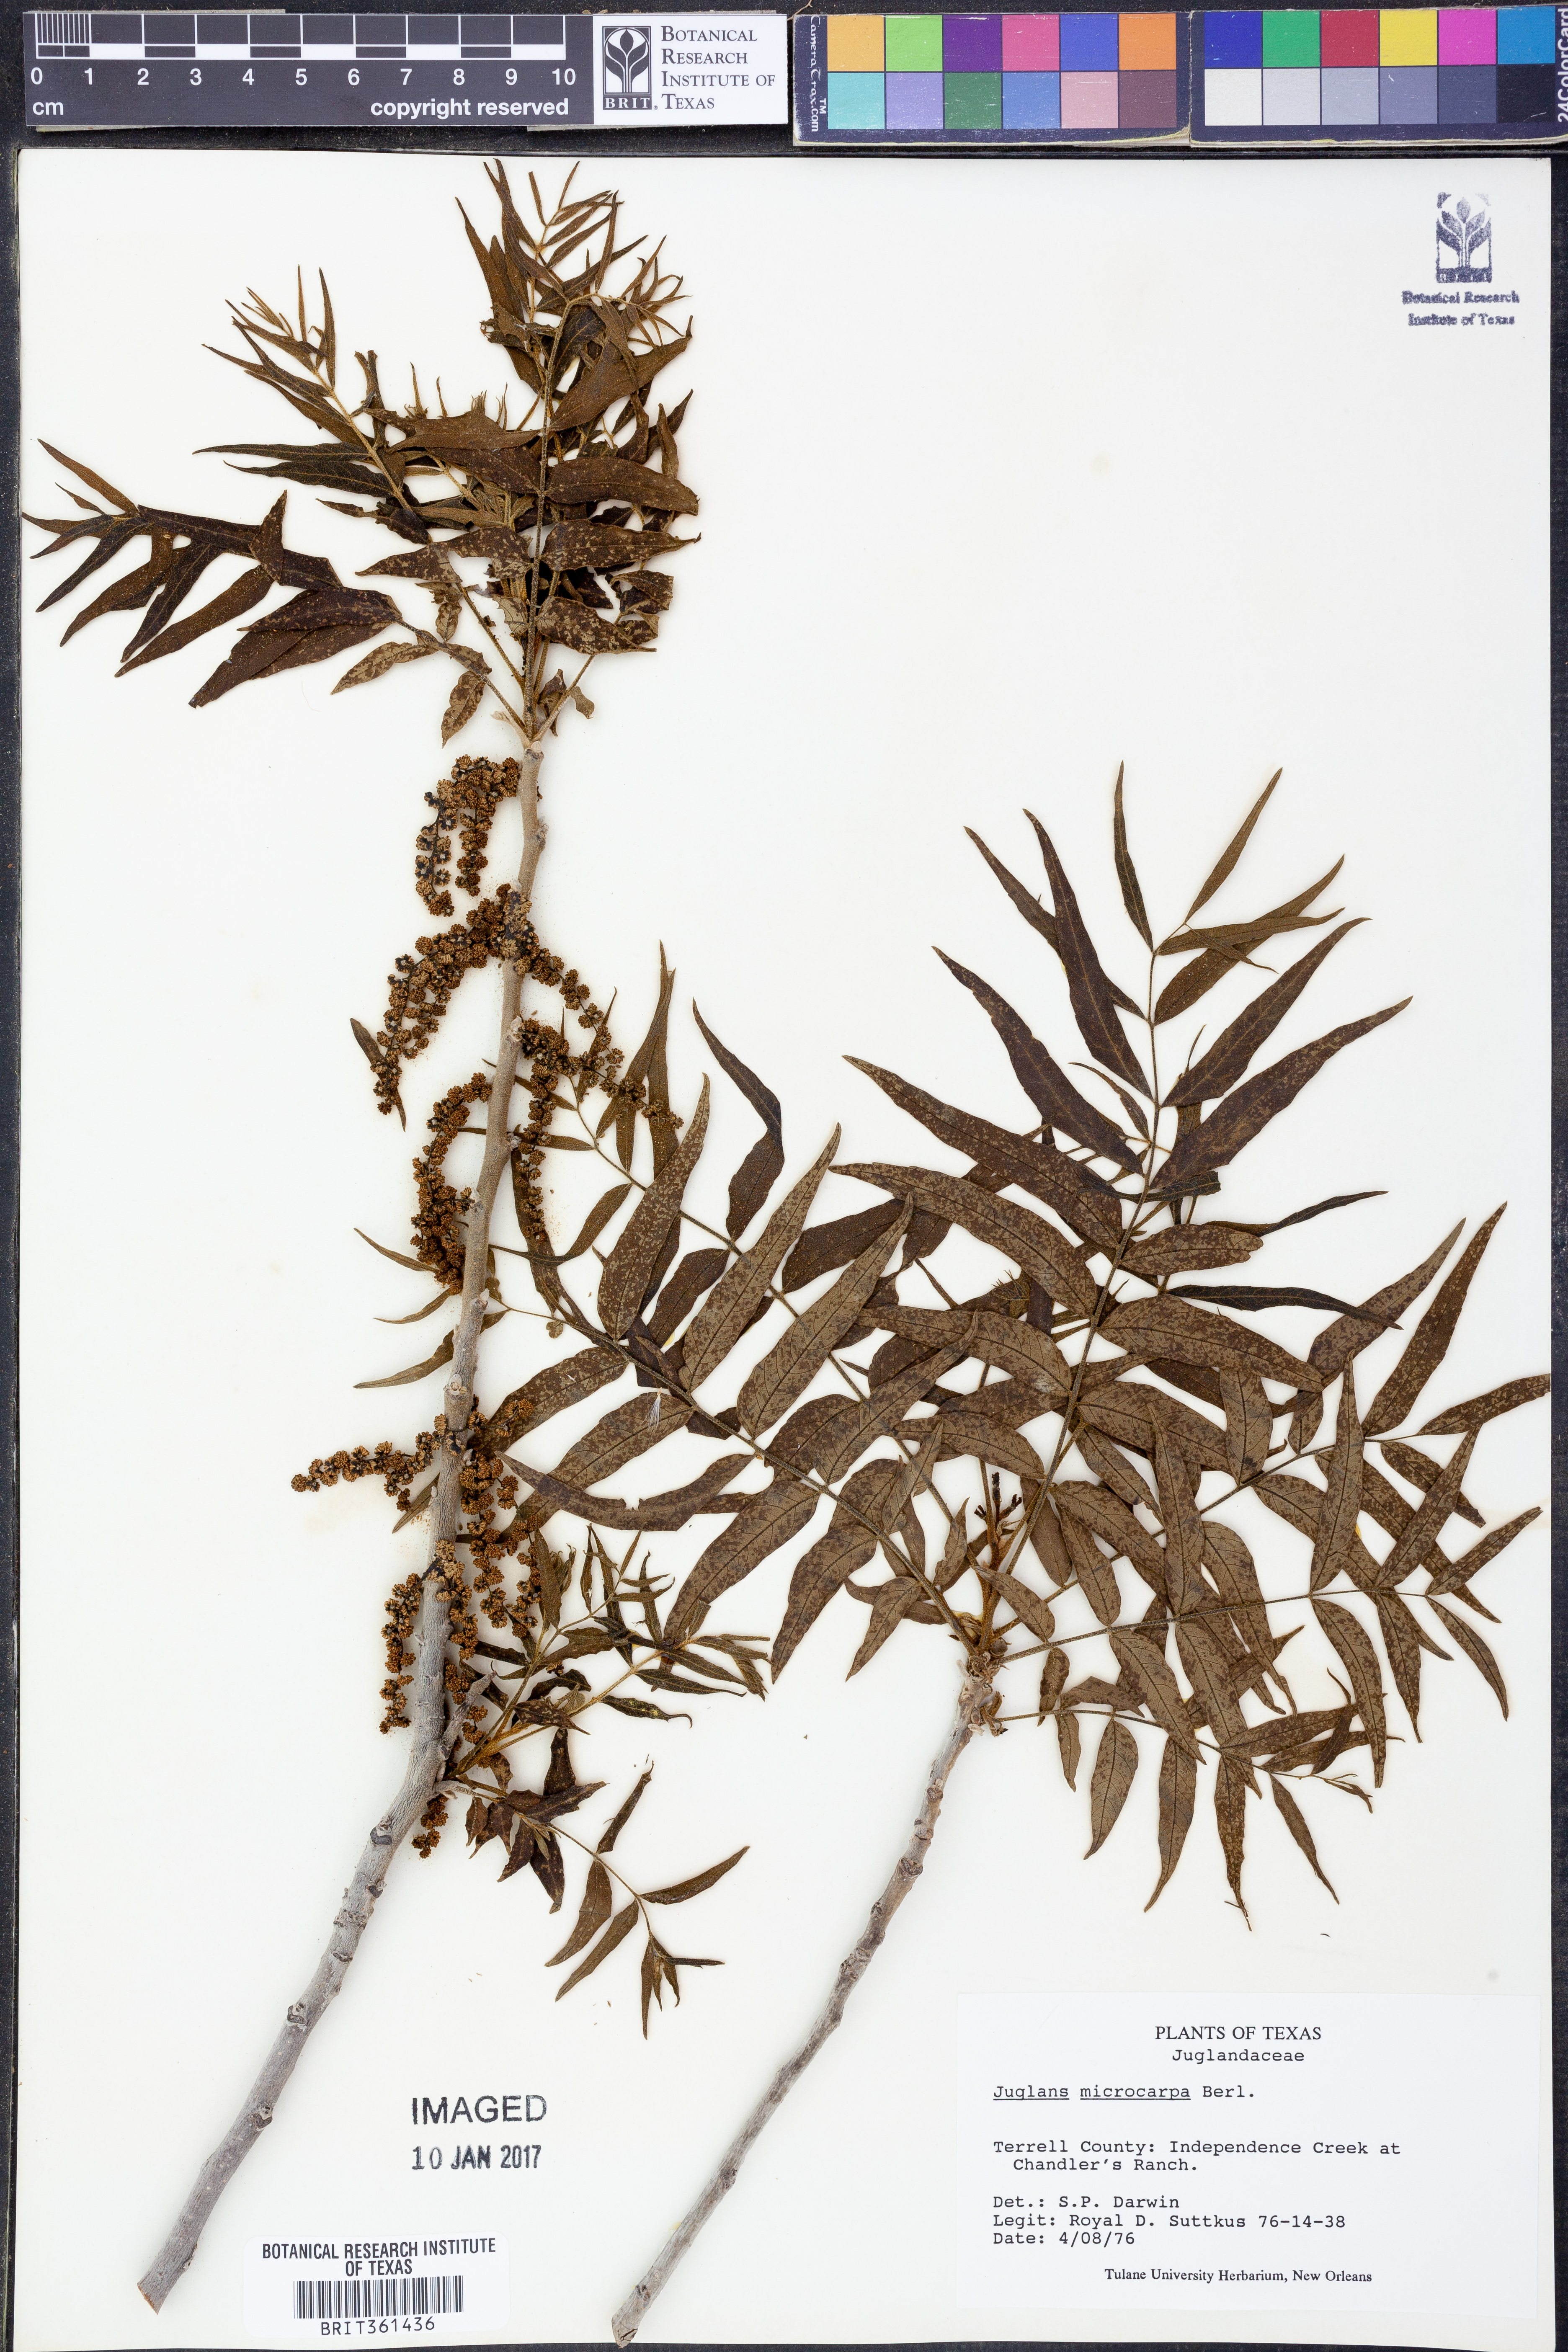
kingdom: Plantae
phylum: Tracheophyta
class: Magnoliopsida
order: Fagales
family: Juglandaceae
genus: Juglans
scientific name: Juglans microcarpa
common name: Texas walnut
